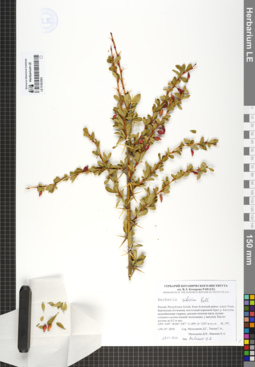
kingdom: Plantae
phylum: Tracheophyta
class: Magnoliopsida
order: Ranunculales
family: Berberidaceae
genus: Berberis
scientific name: Berberis sibirica
